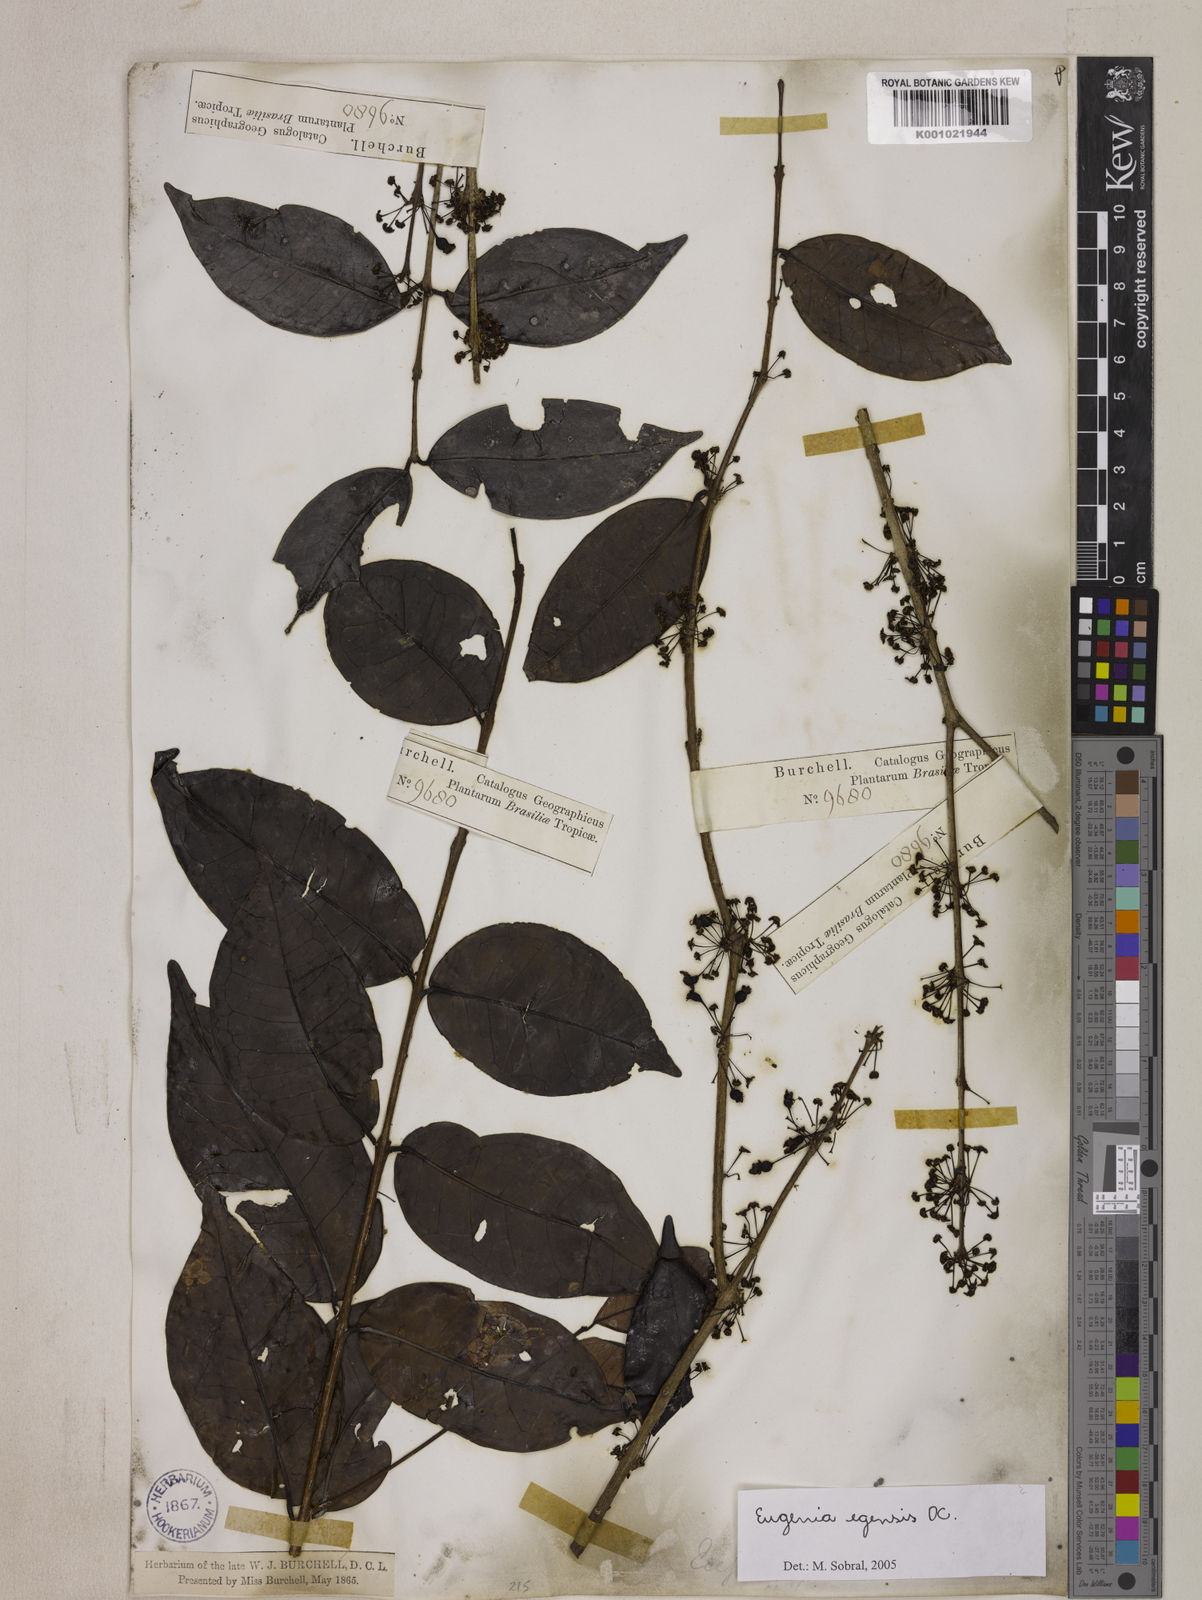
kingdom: Plantae
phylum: Tracheophyta
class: Magnoliopsida
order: Myrtales
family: Myrtaceae
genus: Eugenia
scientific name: Eugenia egensis
